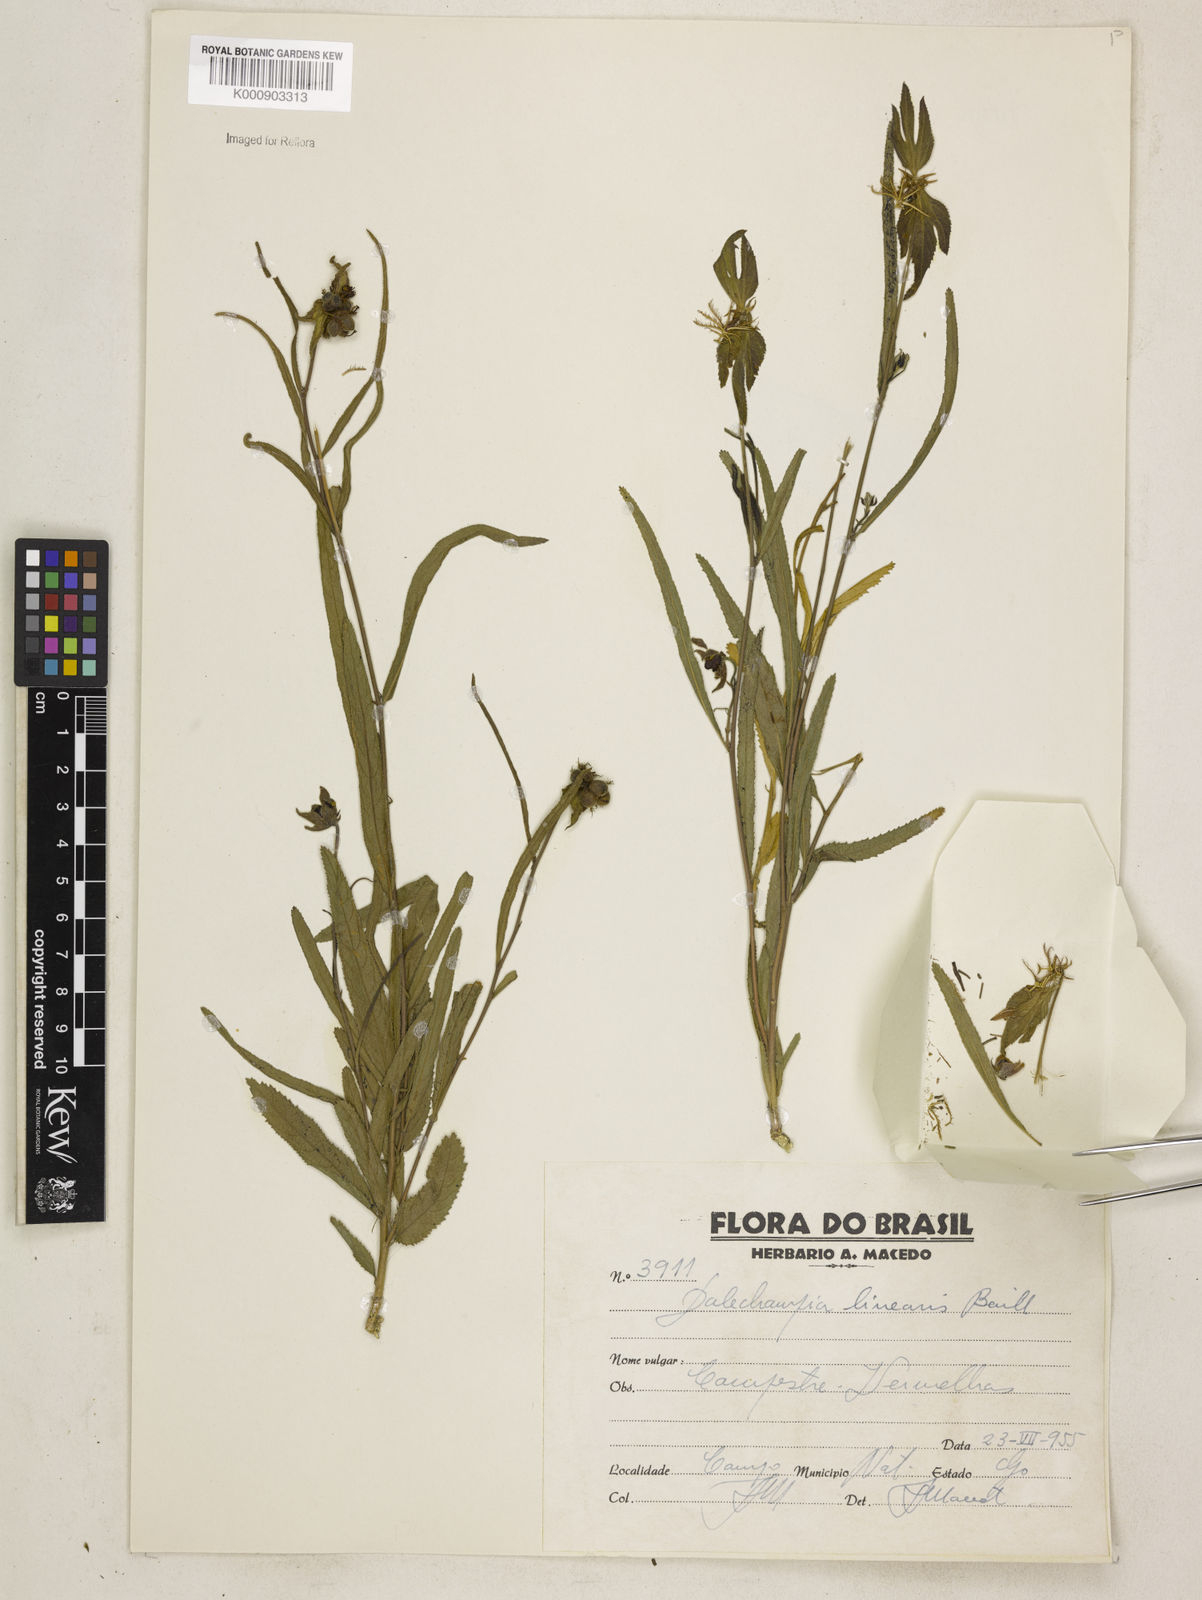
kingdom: Plantae
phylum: Tracheophyta
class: Magnoliopsida
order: Malpighiales
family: Euphorbiaceae
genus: Dalechampia
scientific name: Dalechampia linearis
